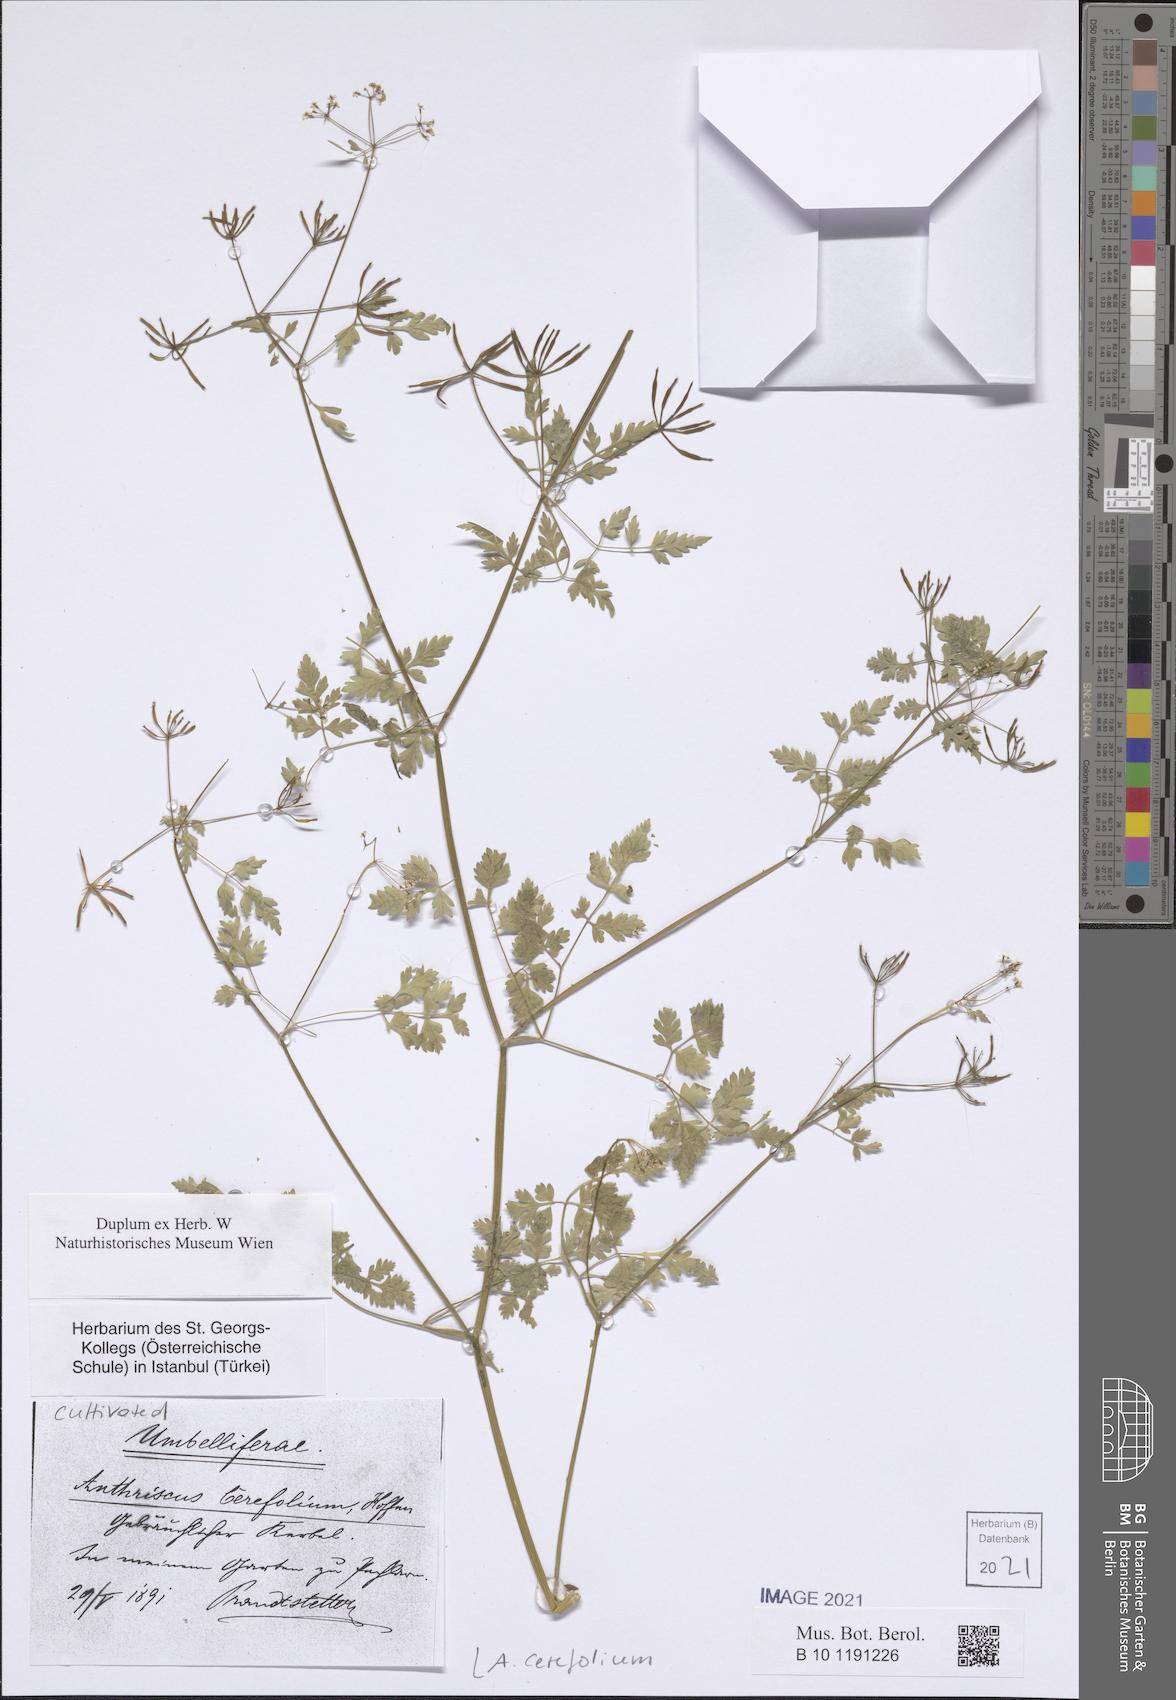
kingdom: Plantae
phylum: Tracheophyta
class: Magnoliopsida
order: Apiales
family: Apiaceae
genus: Anthriscus
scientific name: Anthriscus cerefolium
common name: Garden chervil
